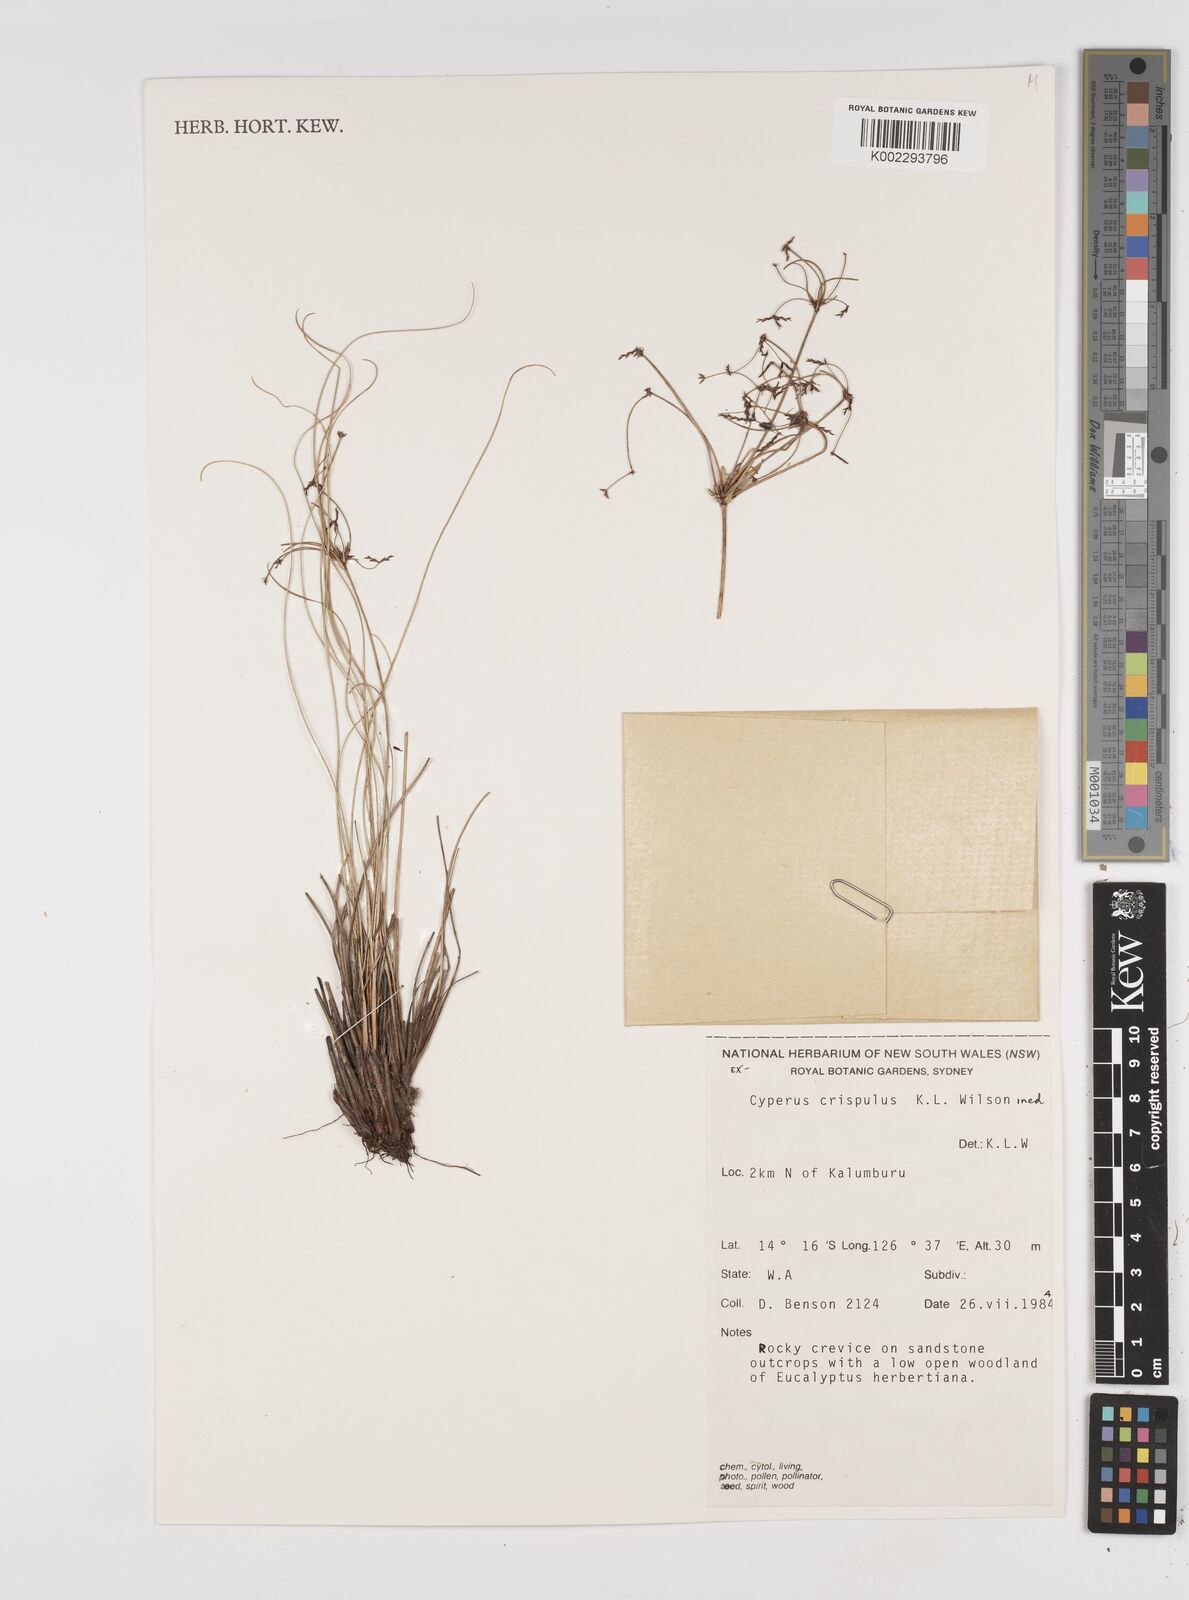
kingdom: Plantae
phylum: Tracheophyta
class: Liliopsida
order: Poales
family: Cyperaceae
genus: Cyperus
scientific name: Cyperus crispulus
